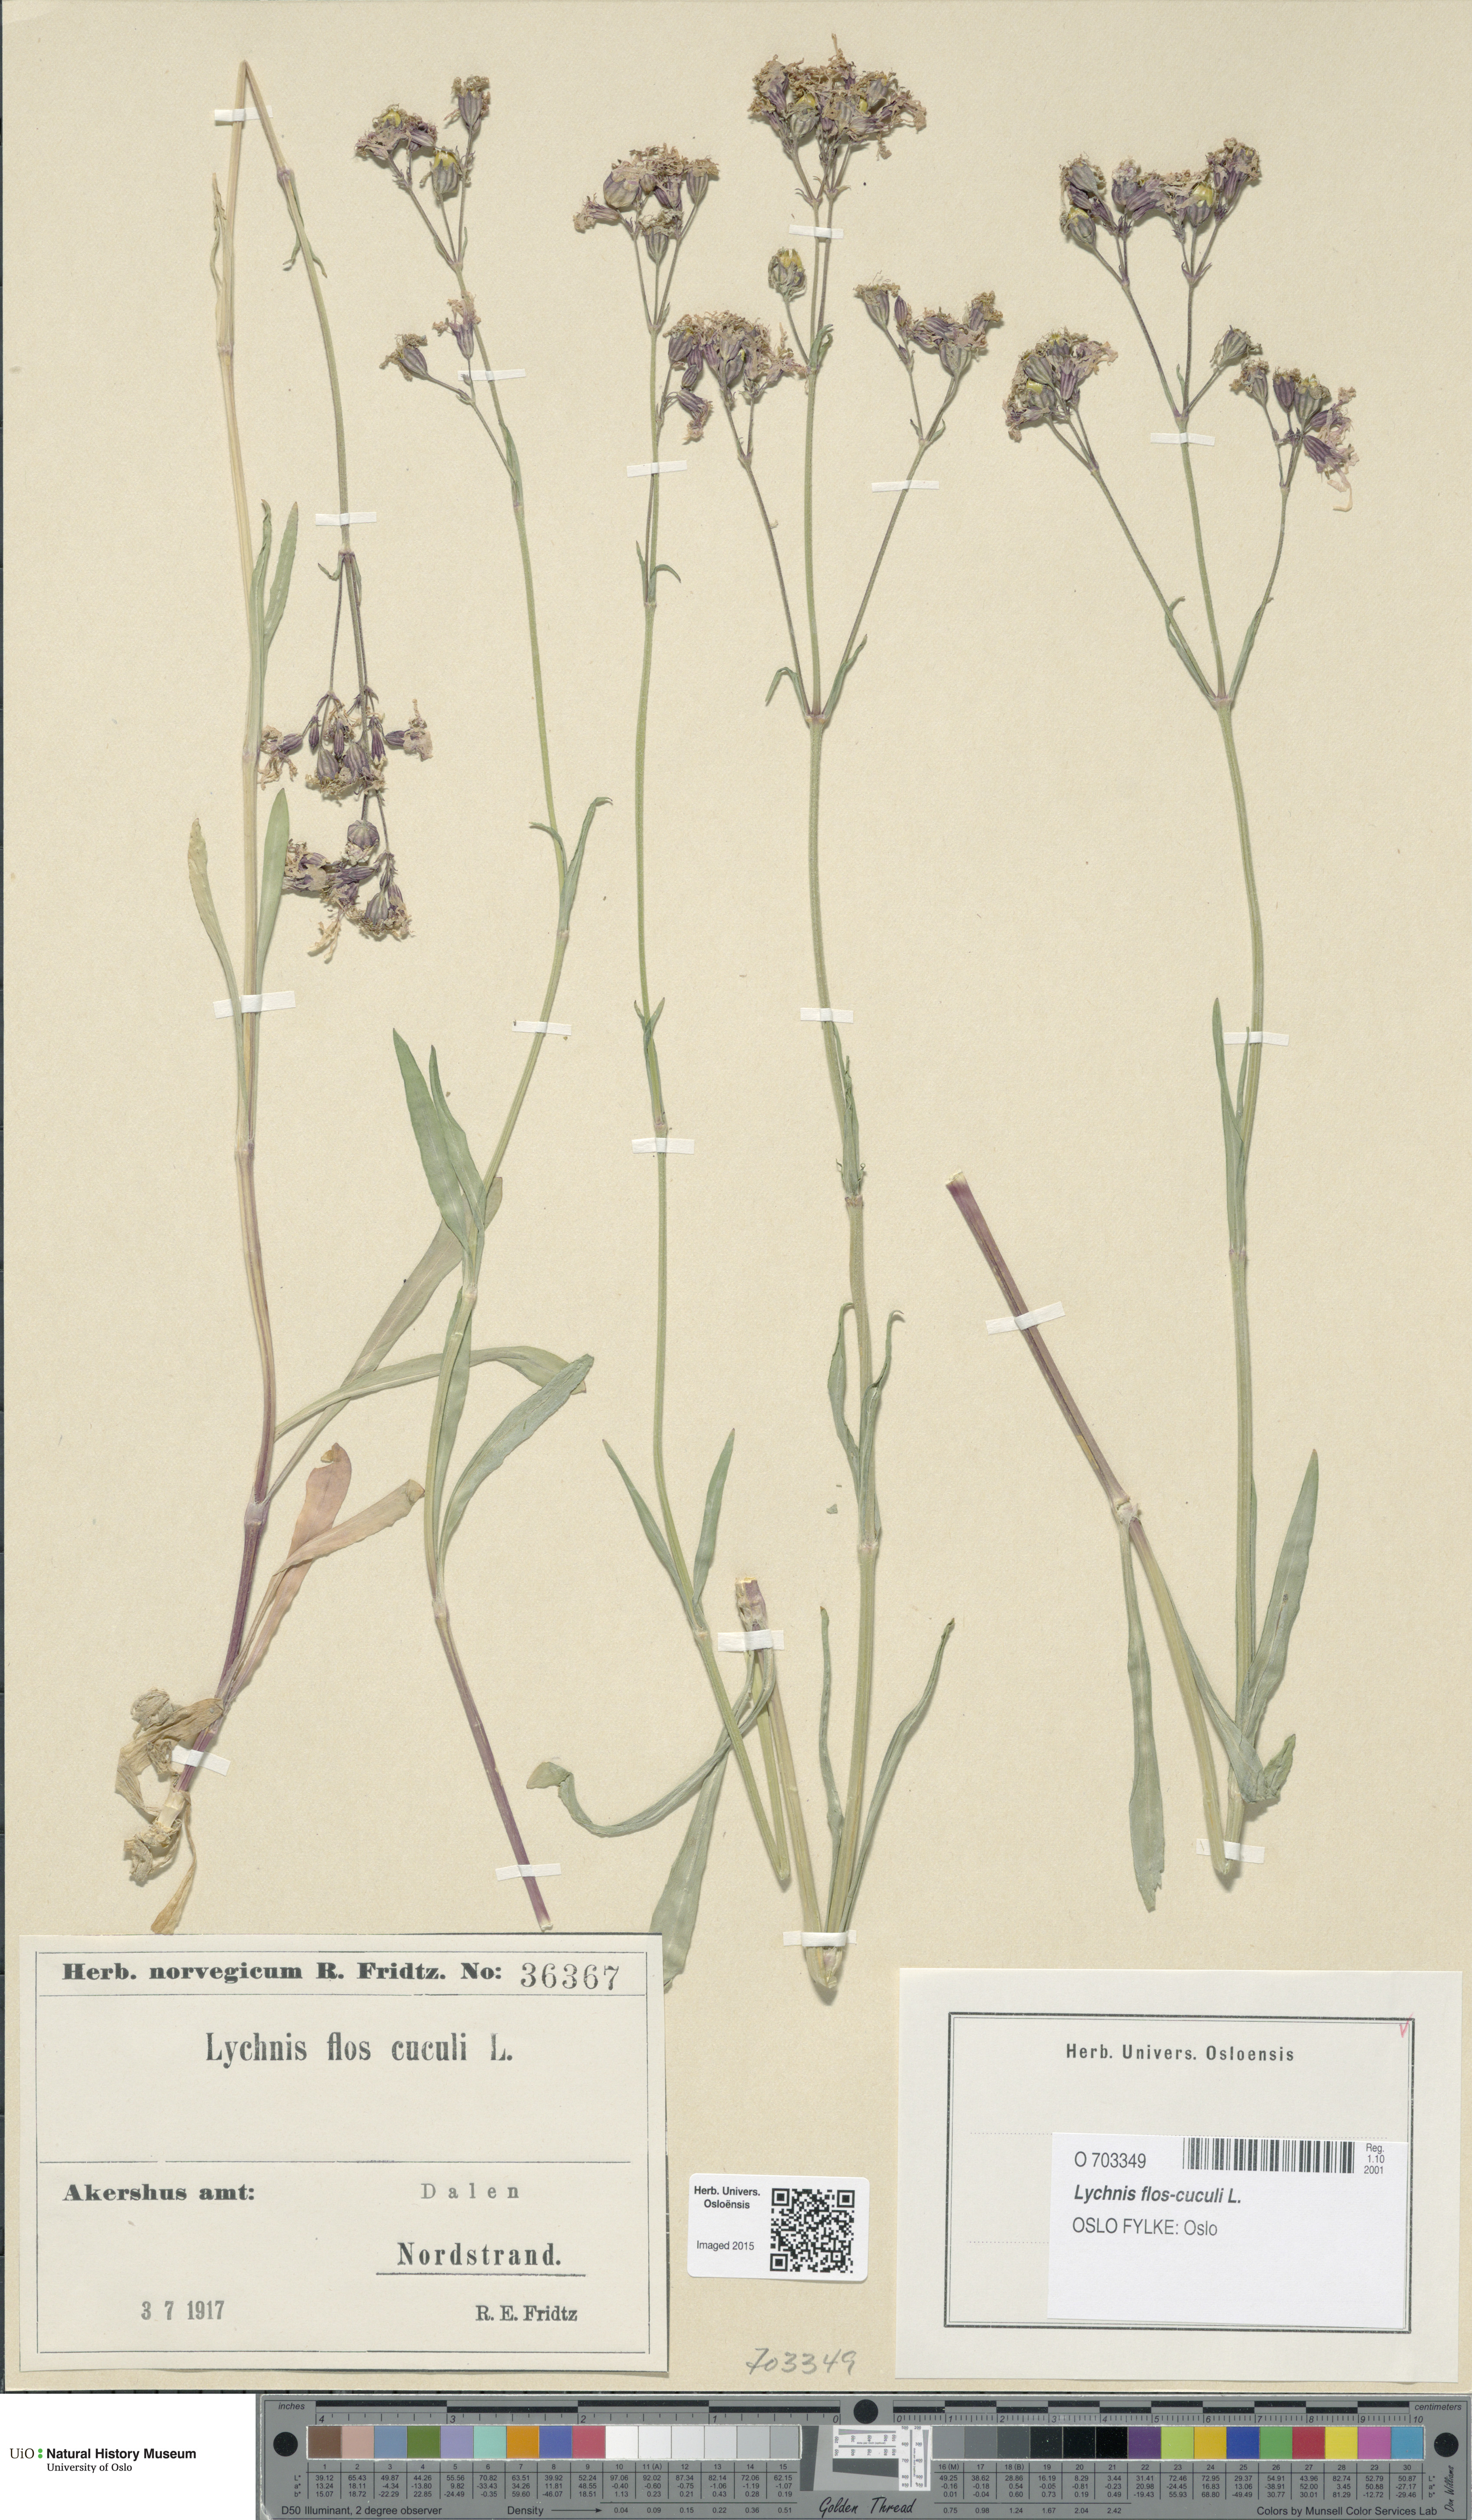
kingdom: Plantae
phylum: Tracheophyta
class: Magnoliopsida
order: Caryophyllales
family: Caryophyllaceae
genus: Silene
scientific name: Silene flos-cuculi
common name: Ragged-robin
